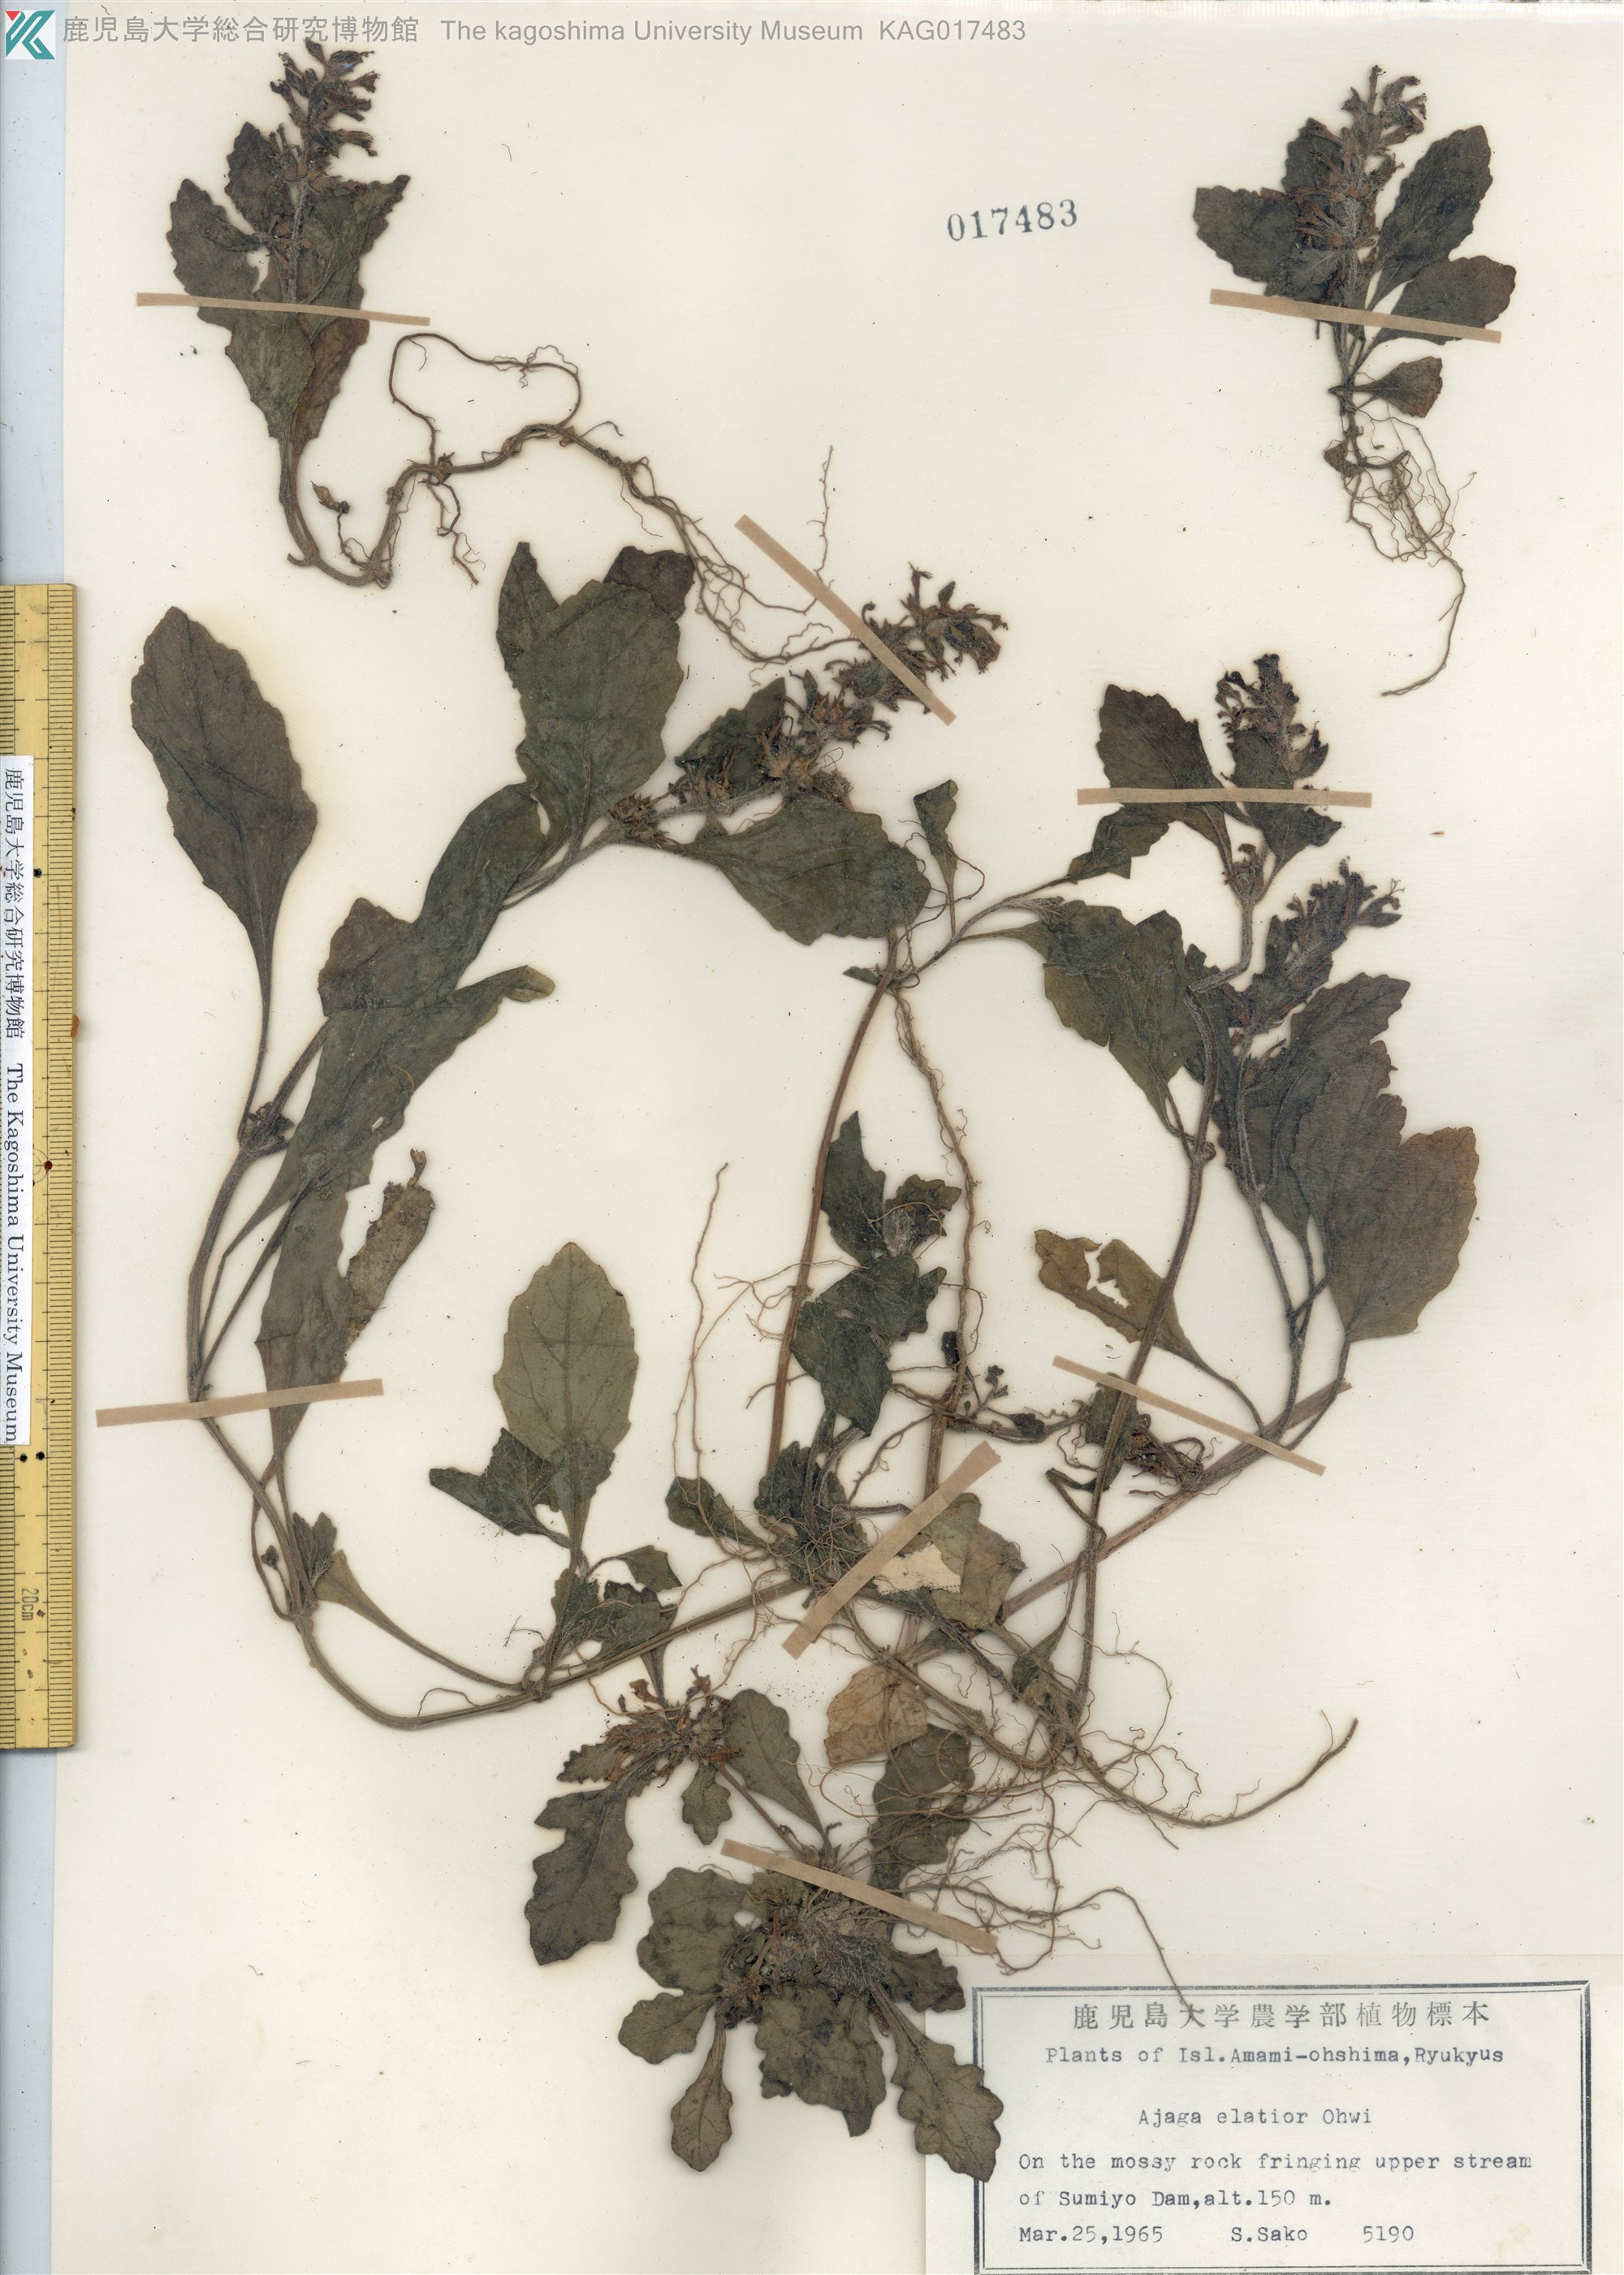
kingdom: Plantae
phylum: Tracheophyta
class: Magnoliopsida
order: Lamiales
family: Lamiaceae
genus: Ajuga
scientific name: Ajuga dictyocarpa
